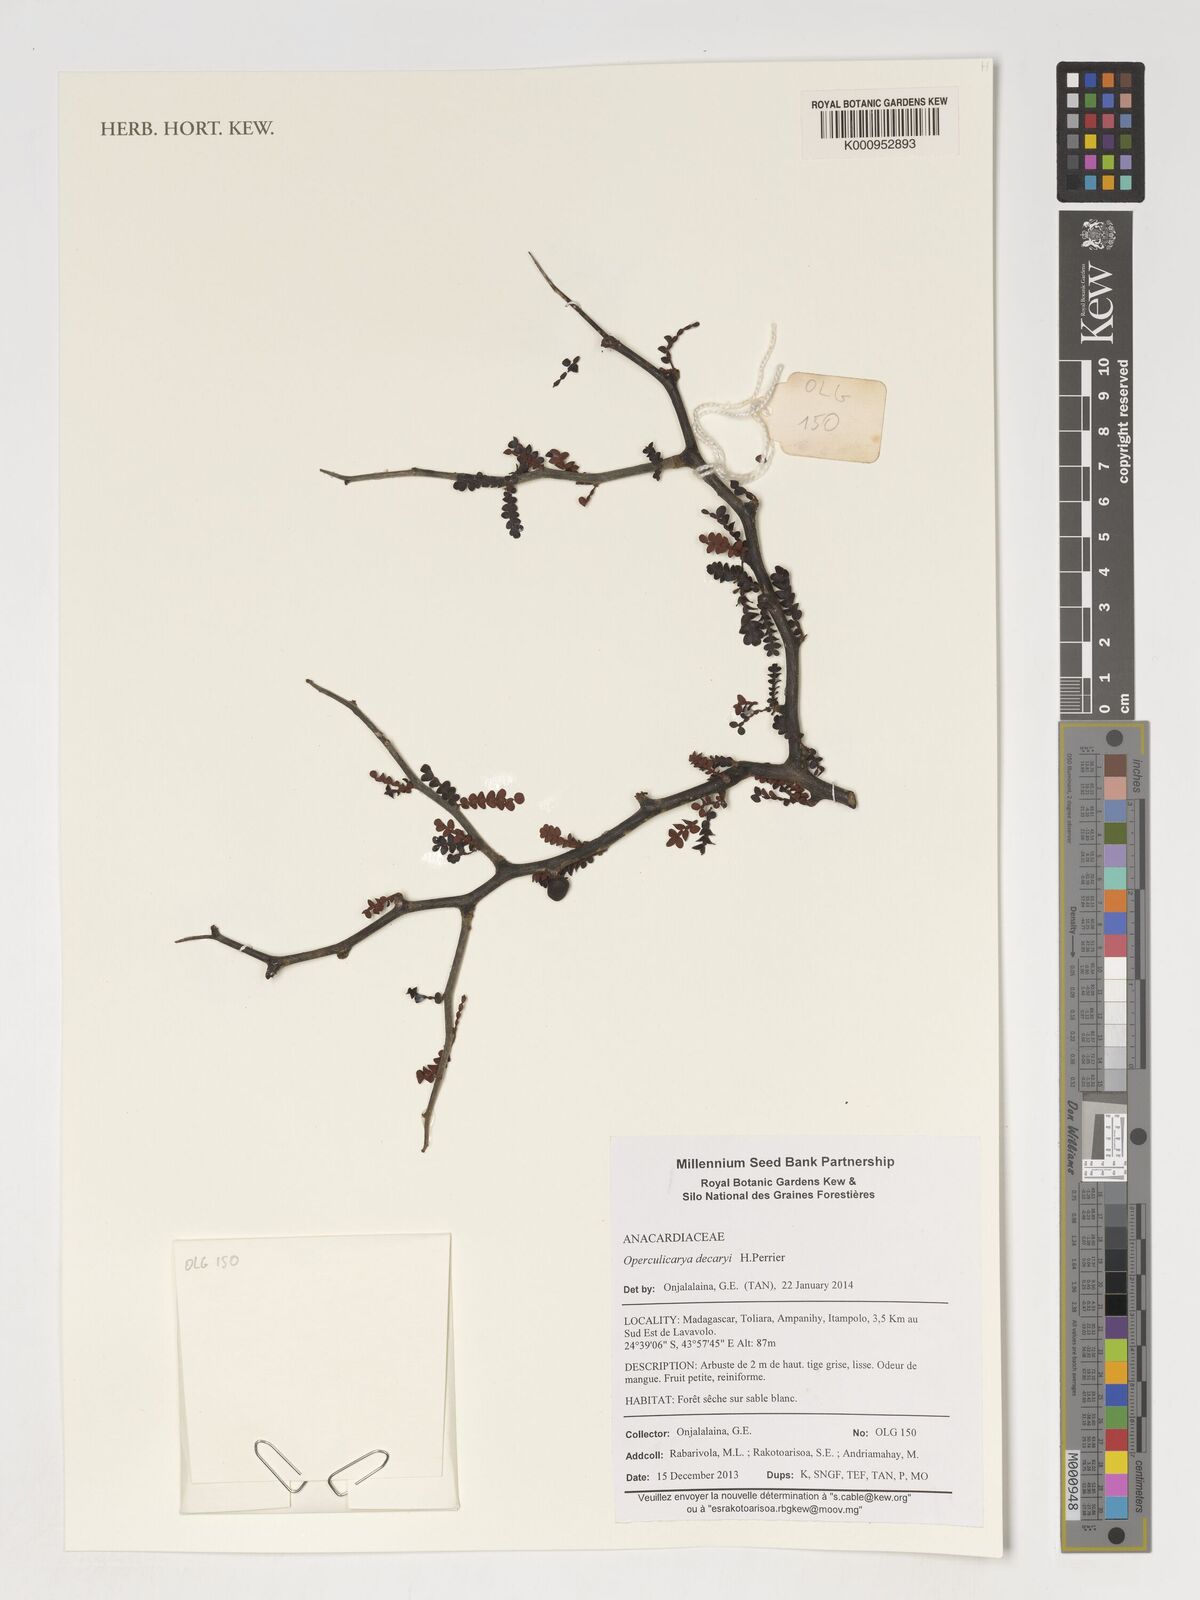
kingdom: Plantae
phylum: Tracheophyta
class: Magnoliopsida
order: Sapindales
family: Anacardiaceae
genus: Operculicarya
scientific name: Operculicarya decaryi
